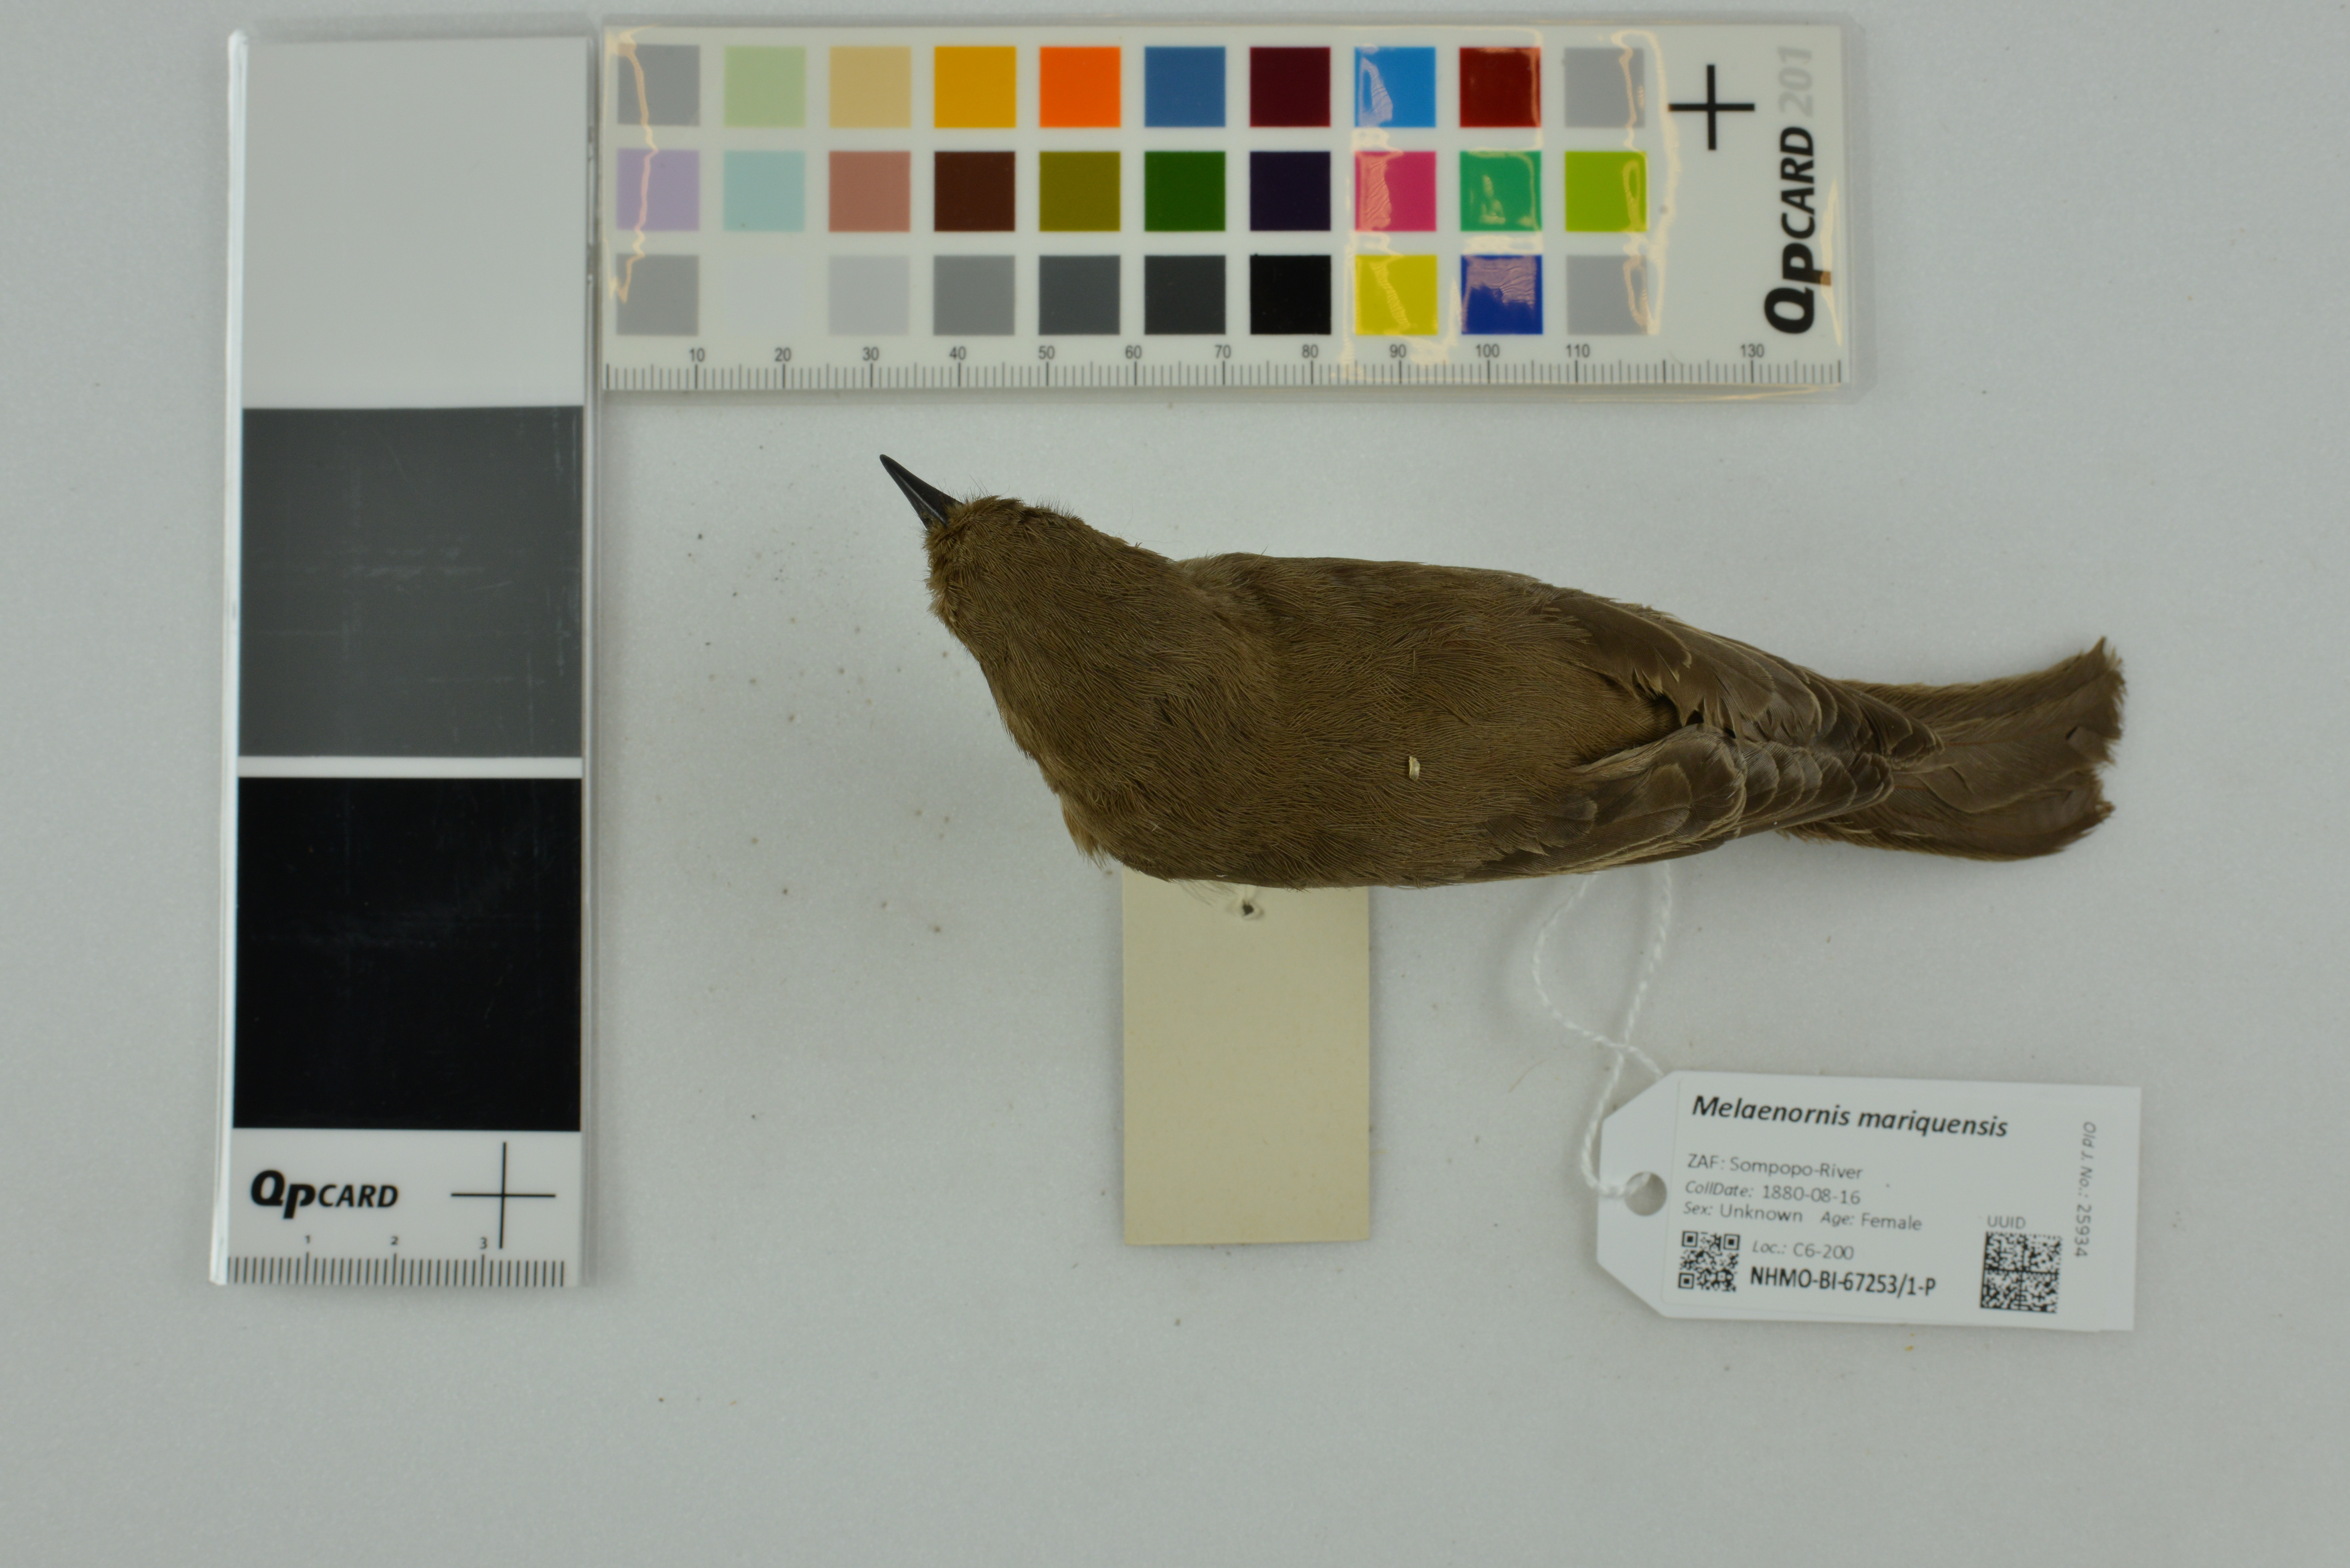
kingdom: Animalia
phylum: Chordata
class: Aves
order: Passeriformes
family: Muscicapidae
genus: Melaenornis
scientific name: Melaenornis
